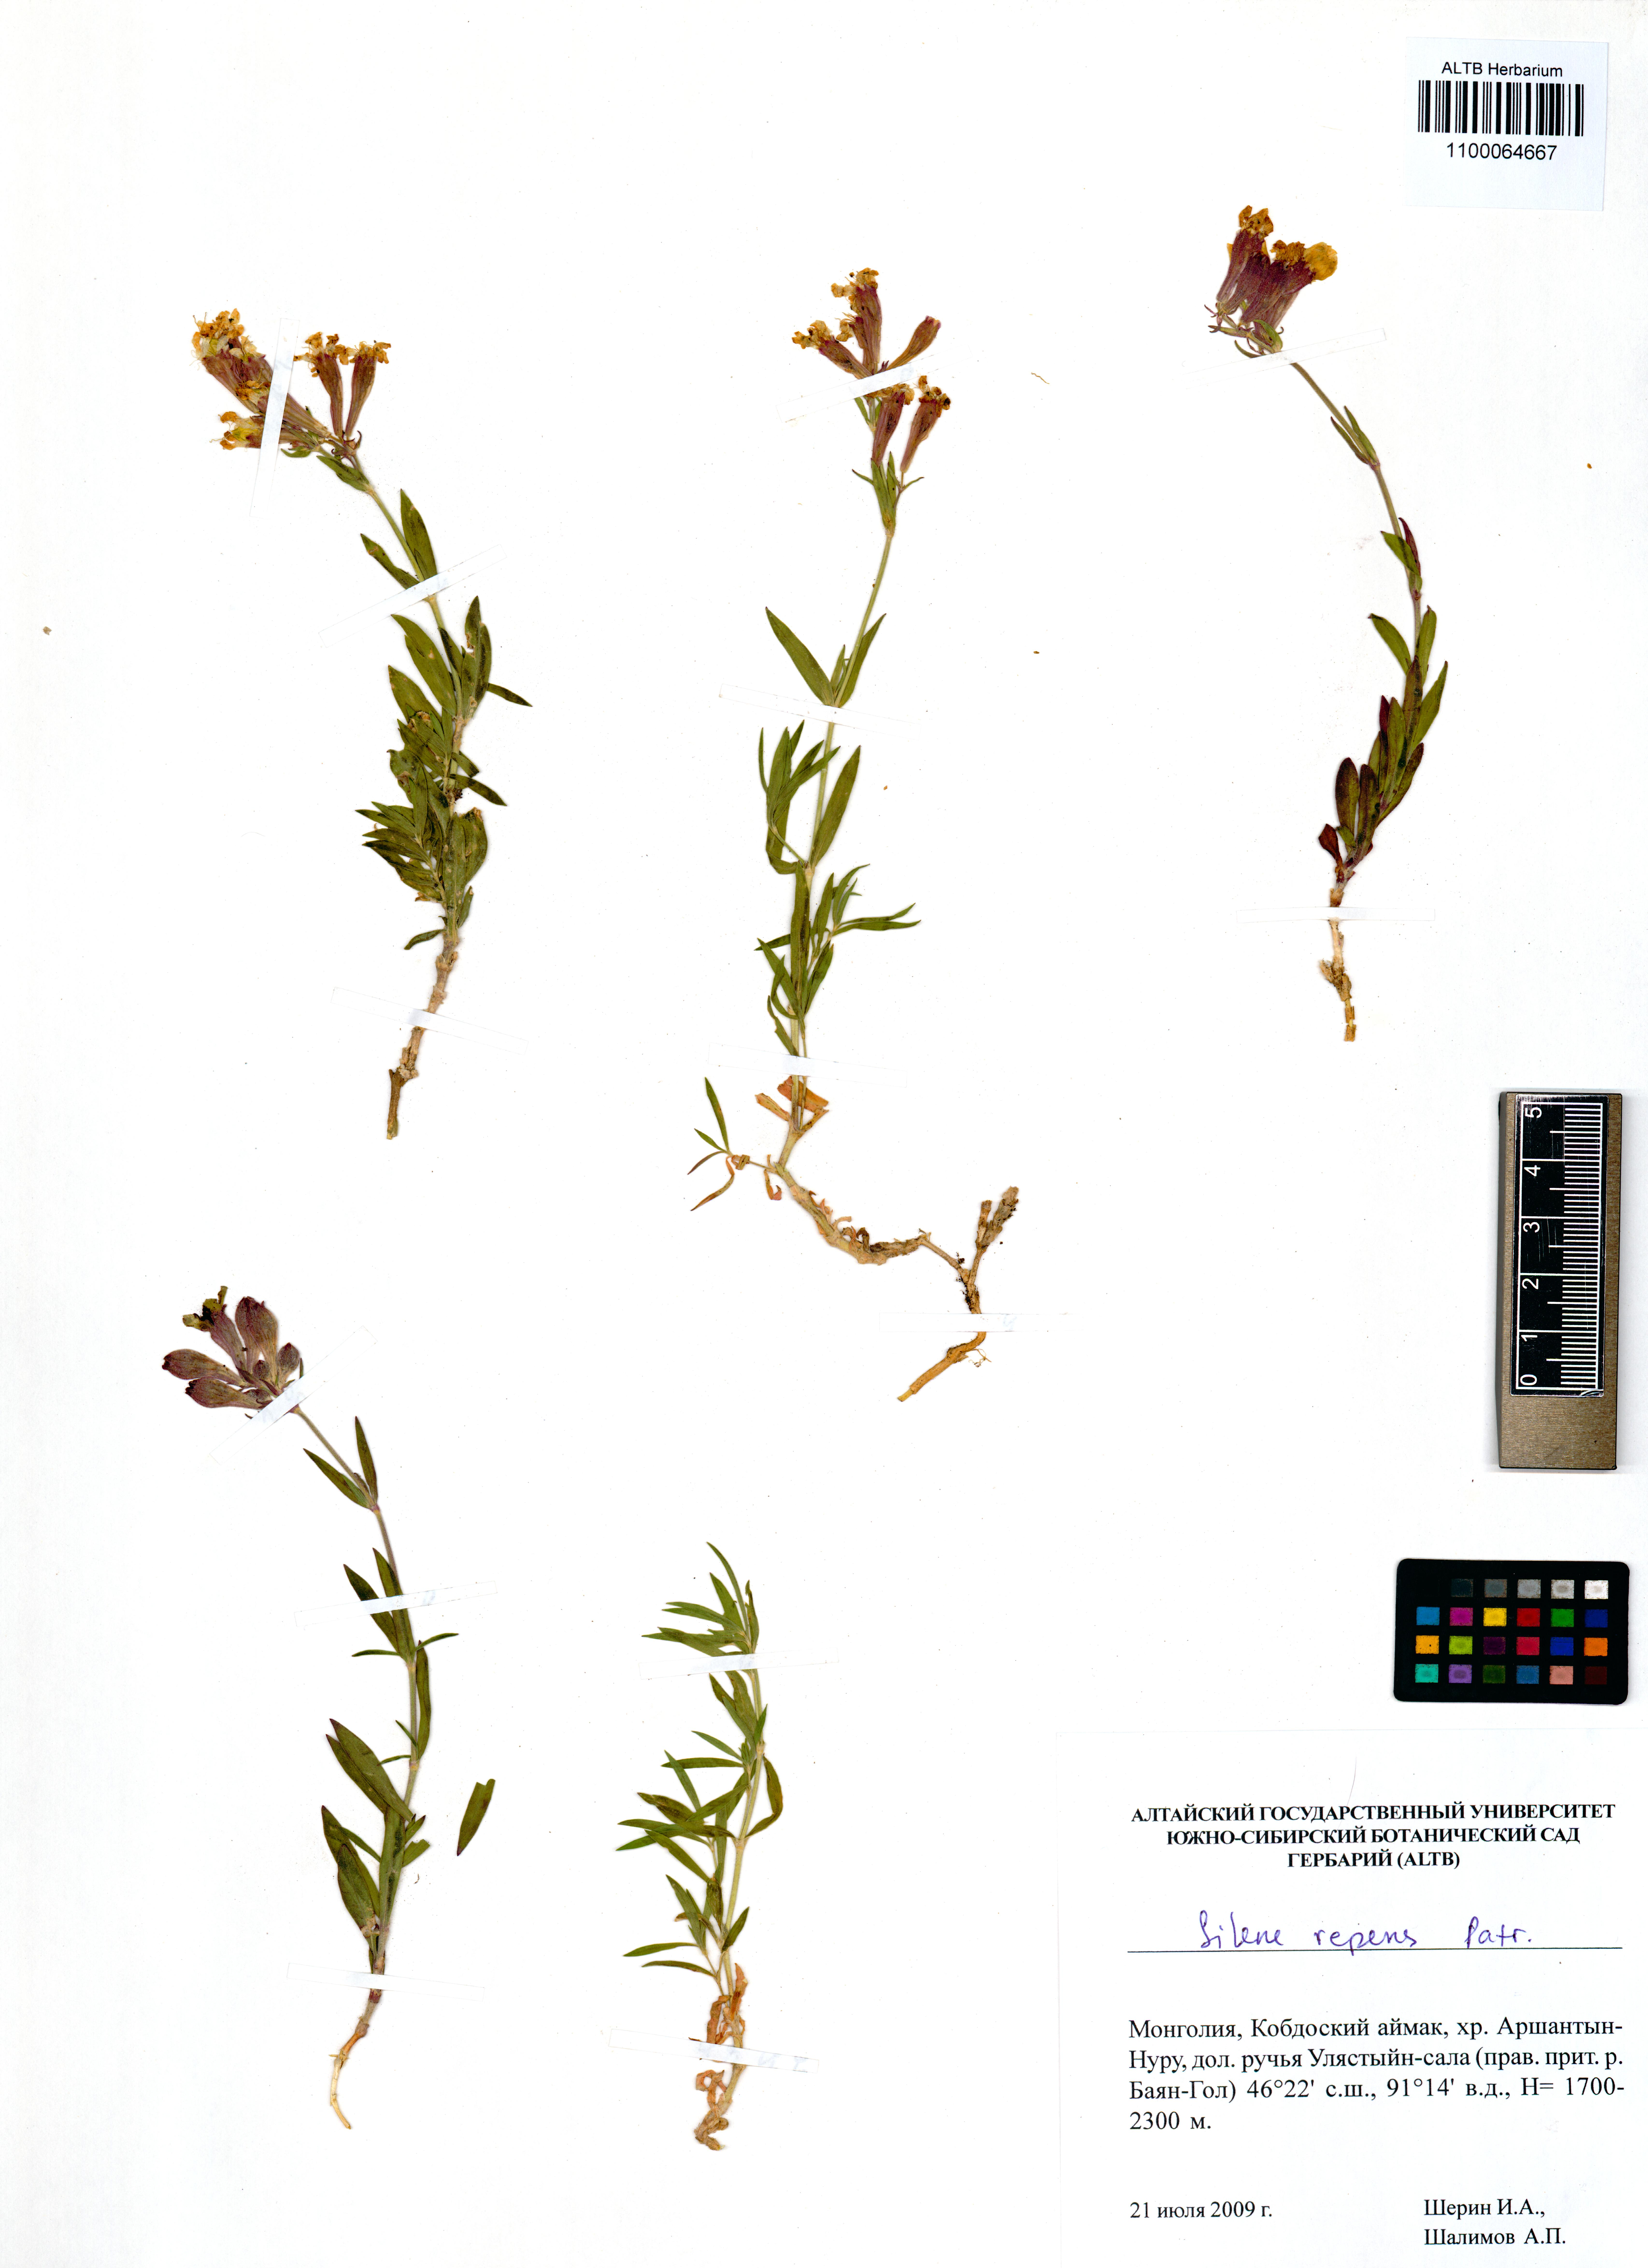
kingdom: Plantae
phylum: Tracheophyta
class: Magnoliopsida
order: Caryophyllales
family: Caryophyllaceae
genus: Silene
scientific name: Silene repens
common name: Pink campion
